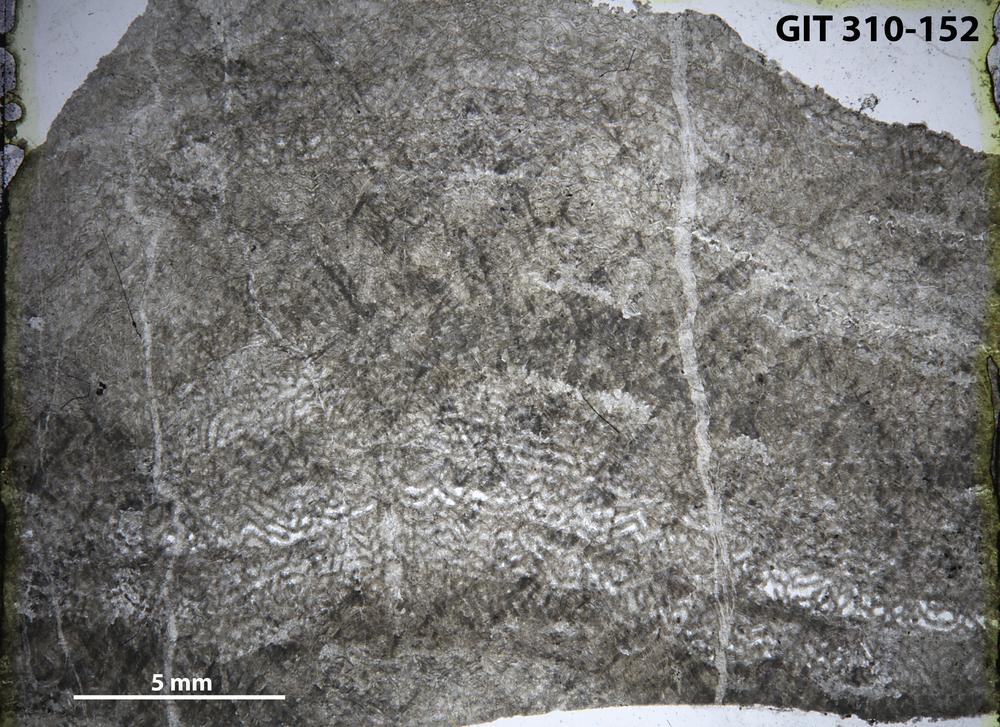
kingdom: Animalia
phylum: Porifera
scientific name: Porifera
